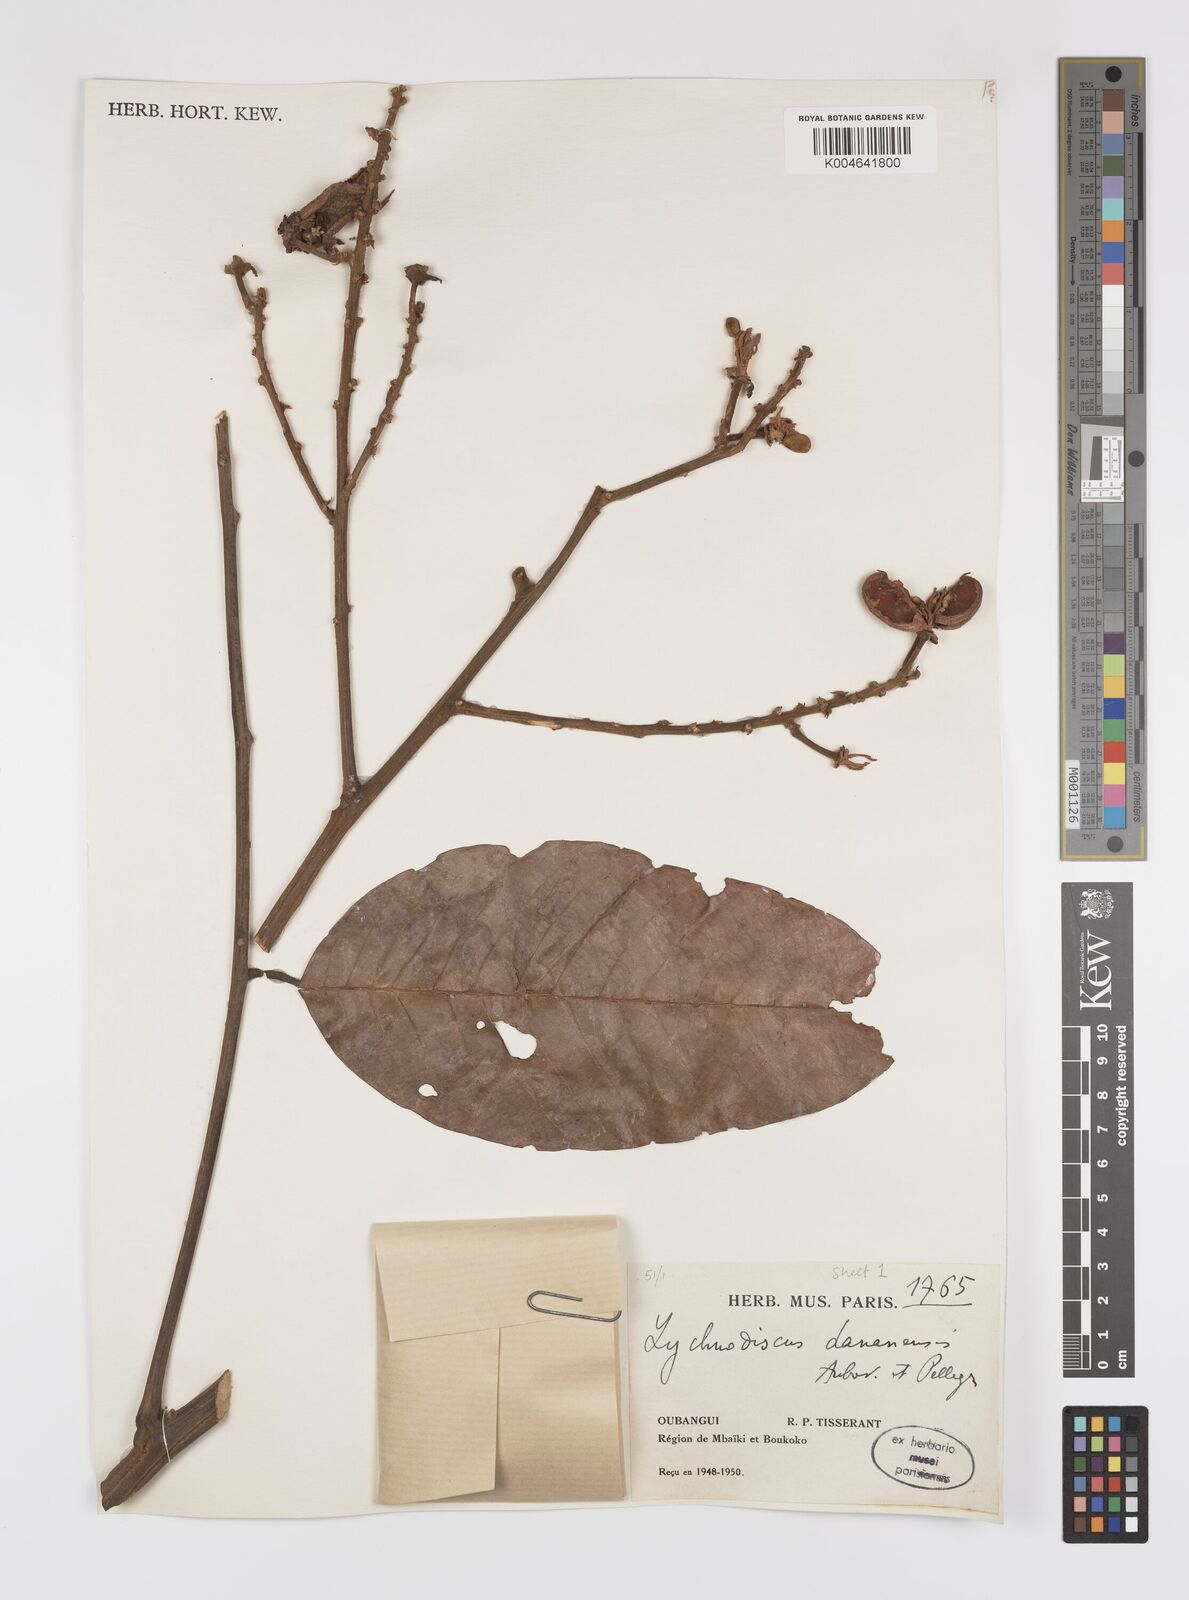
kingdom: Plantae
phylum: Tracheophyta
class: Magnoliopsida
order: Sapindales
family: Sapindaceae
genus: Lychnodiscus
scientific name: Lychnodiscus dananensis
